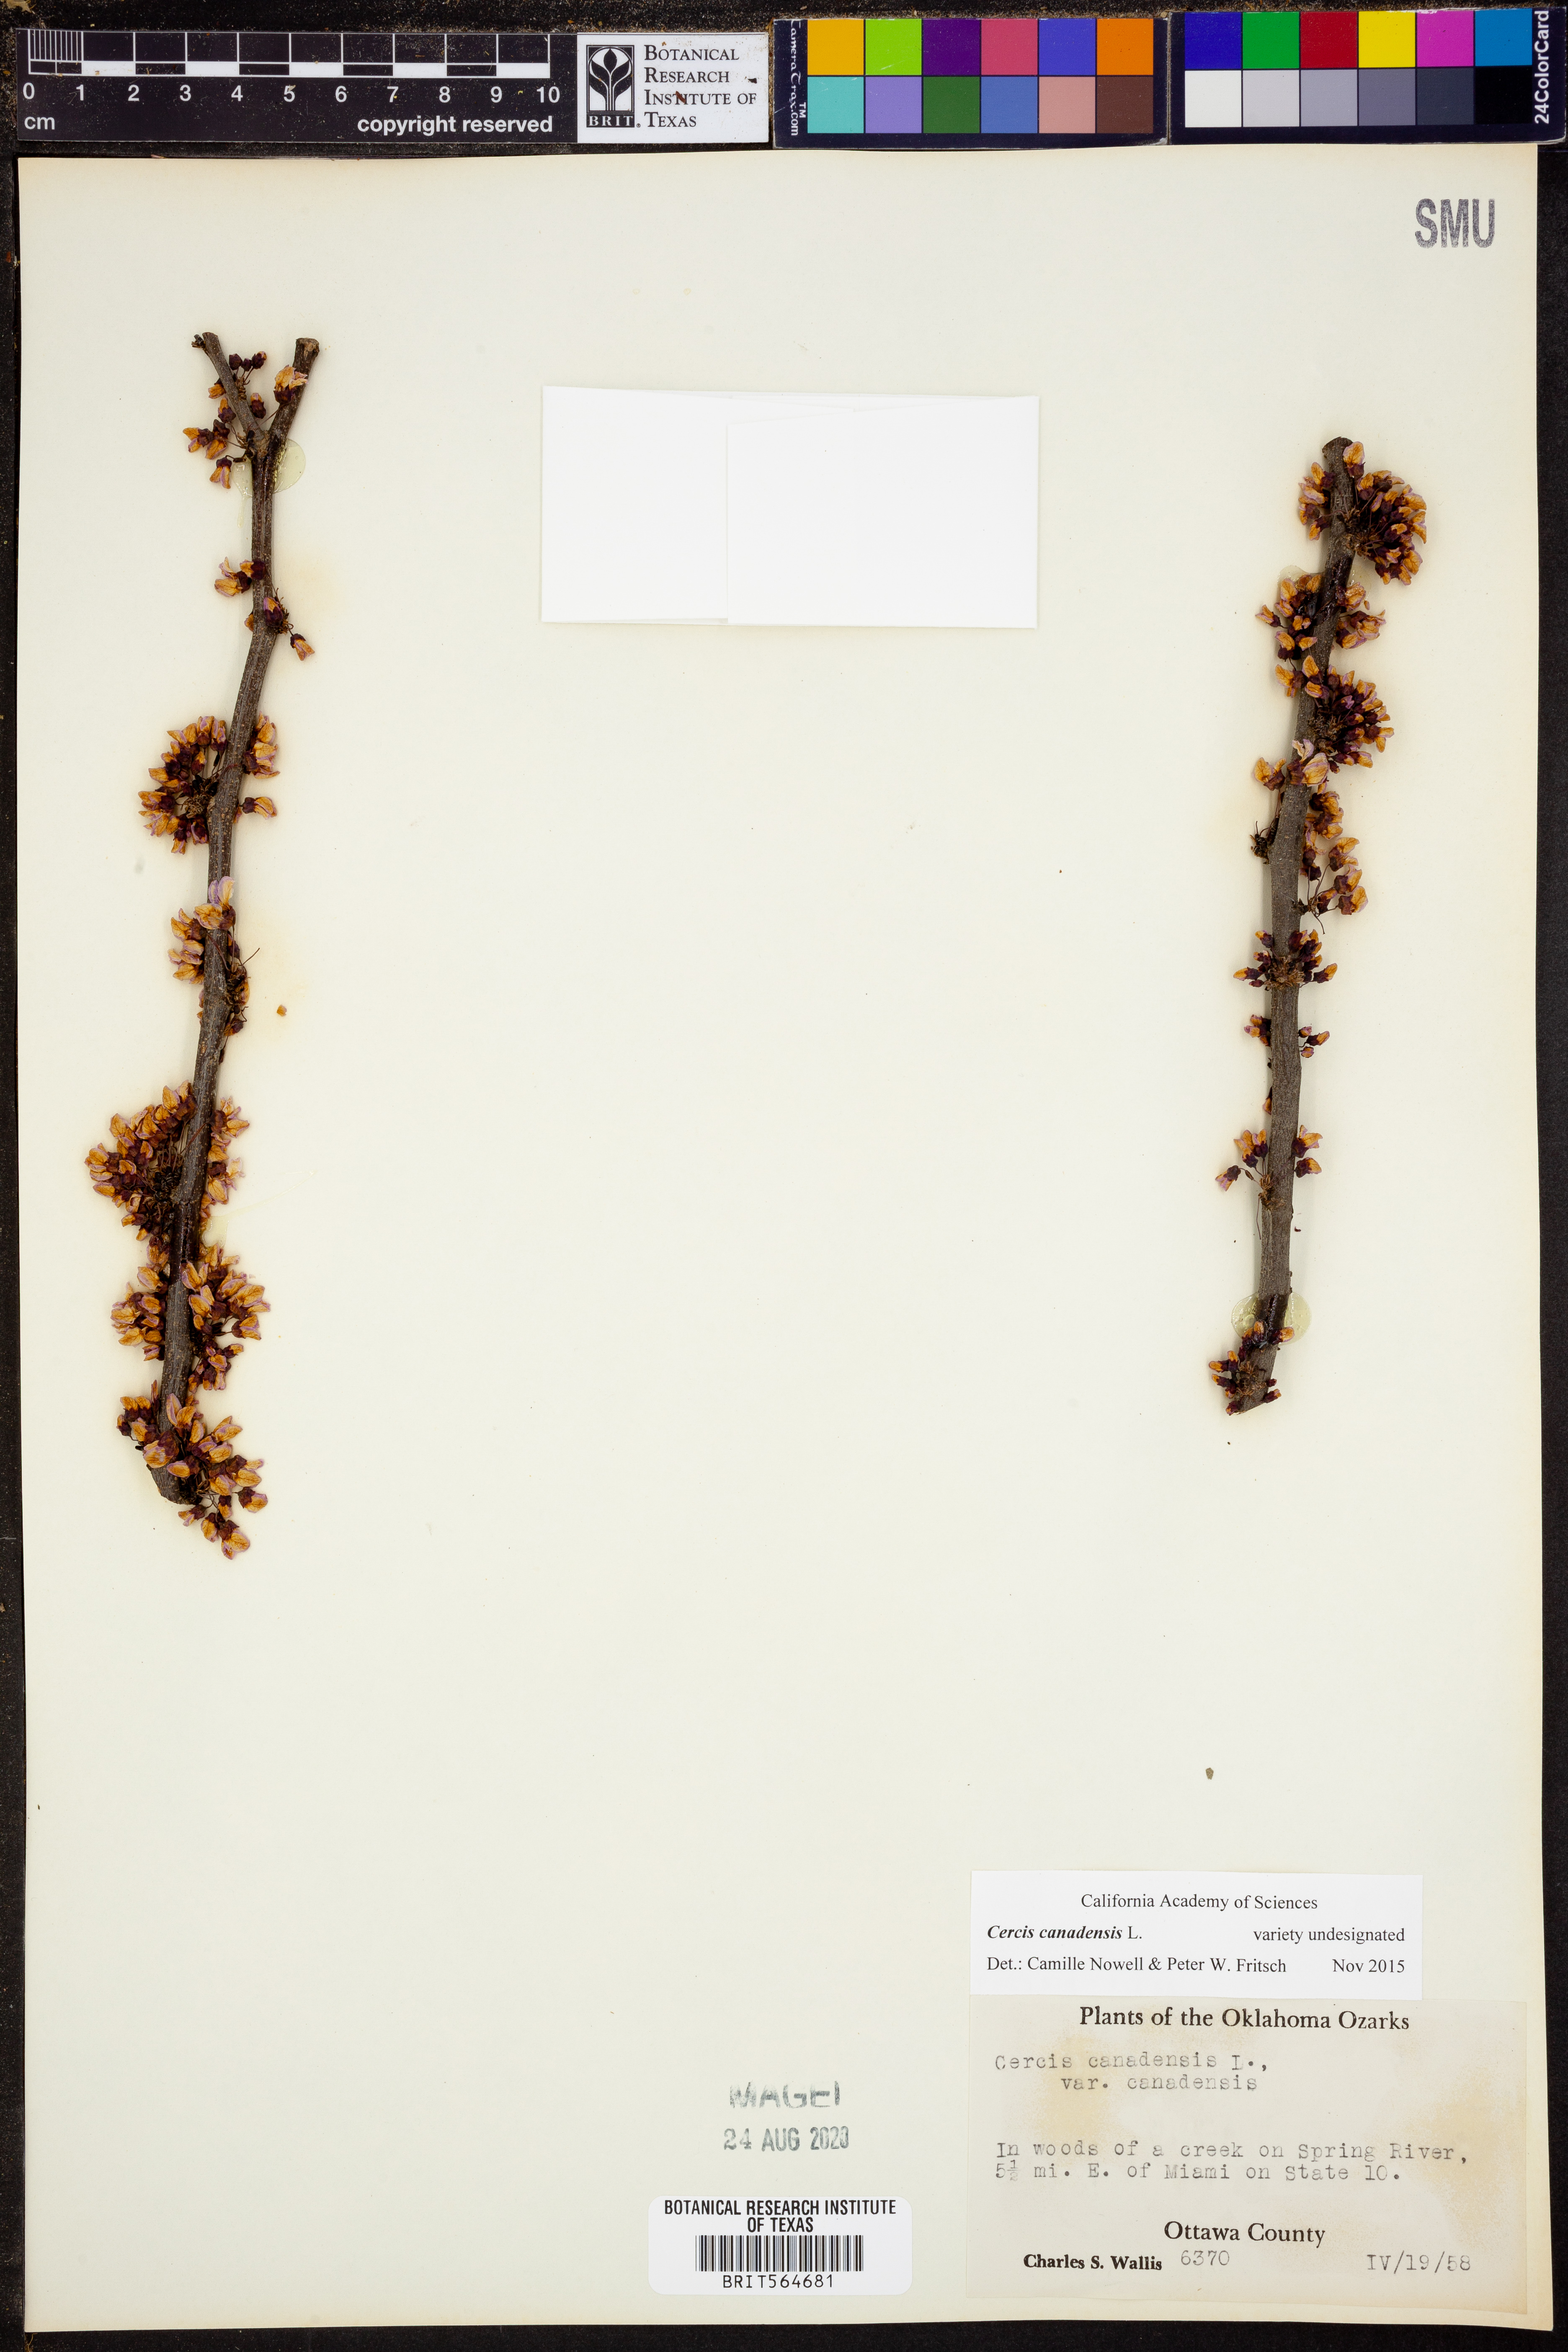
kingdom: Plantae
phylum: Tracheophyta
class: Magnoliopsida
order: Fabales
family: Fabaceae
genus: Cercis
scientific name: Cercis canadensis
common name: Eastern redbud
